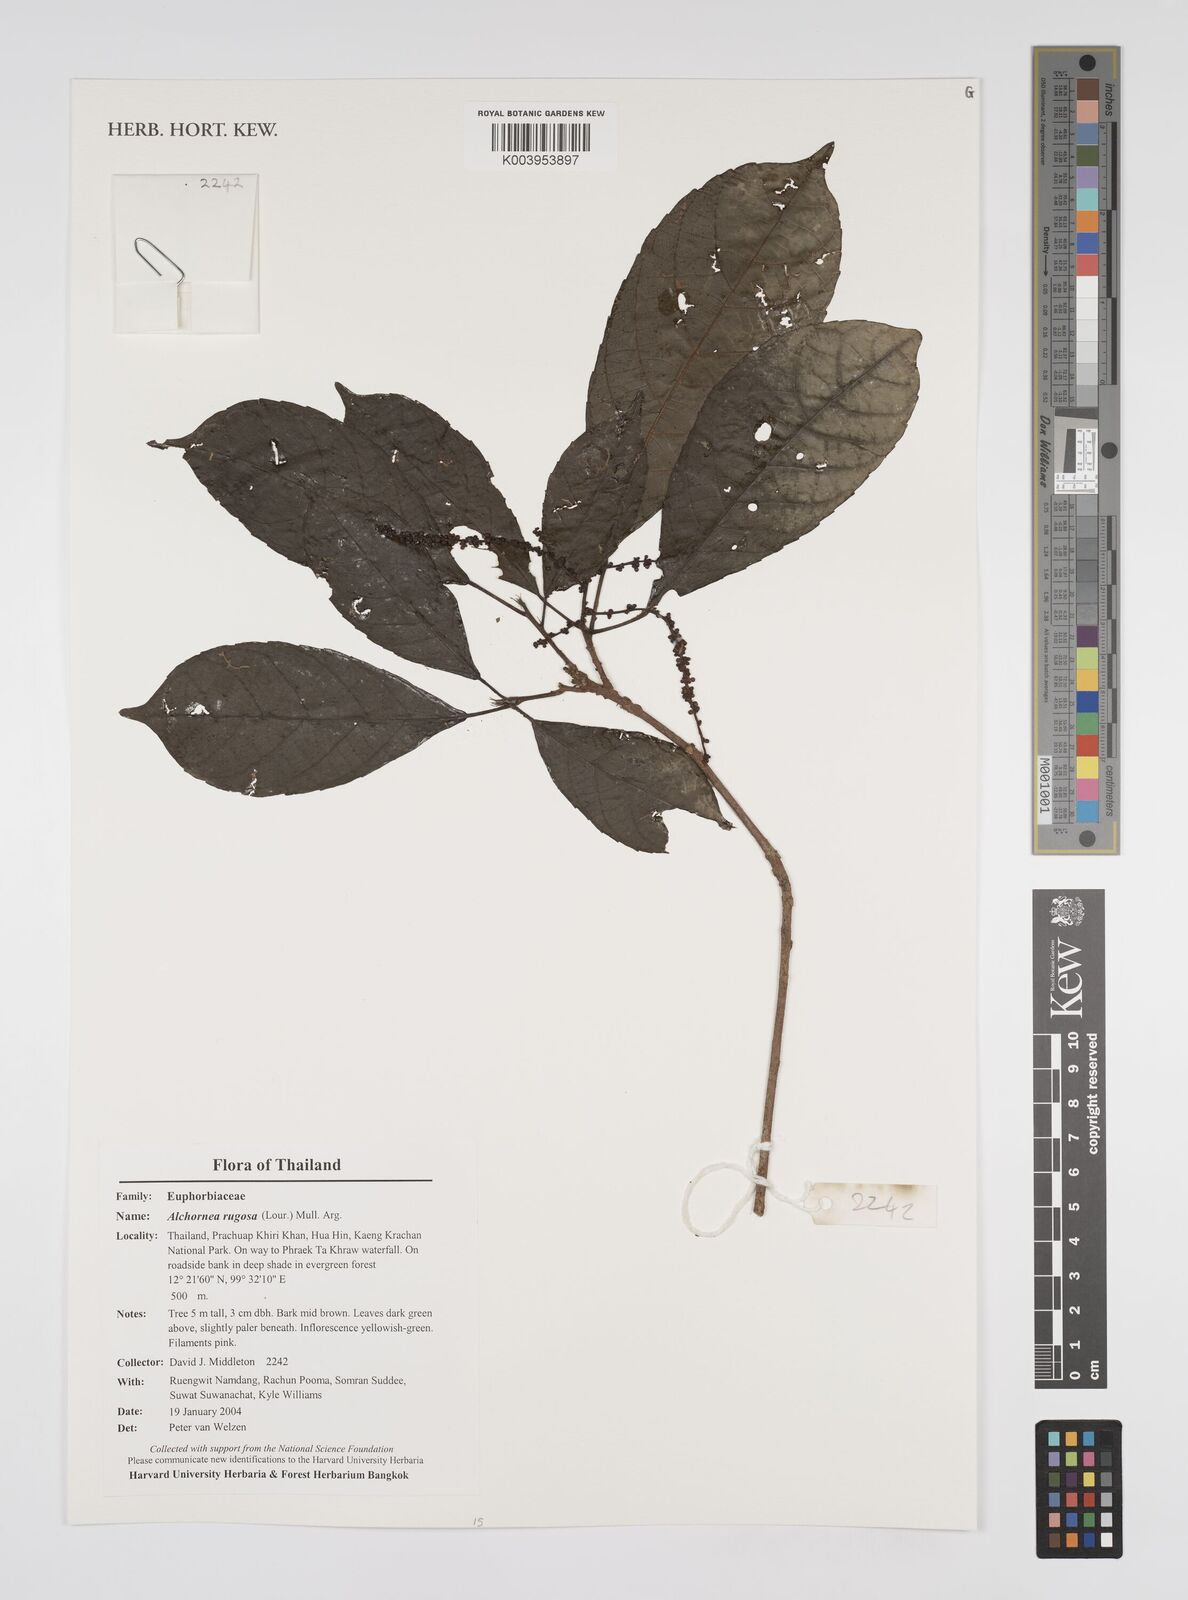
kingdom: Plantae
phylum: Tracheophyta
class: Magnoliopsida
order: Malpighiales
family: Euphorbiaceae
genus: Alchornea
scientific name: Alchornea rugosa
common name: Alchorntree
